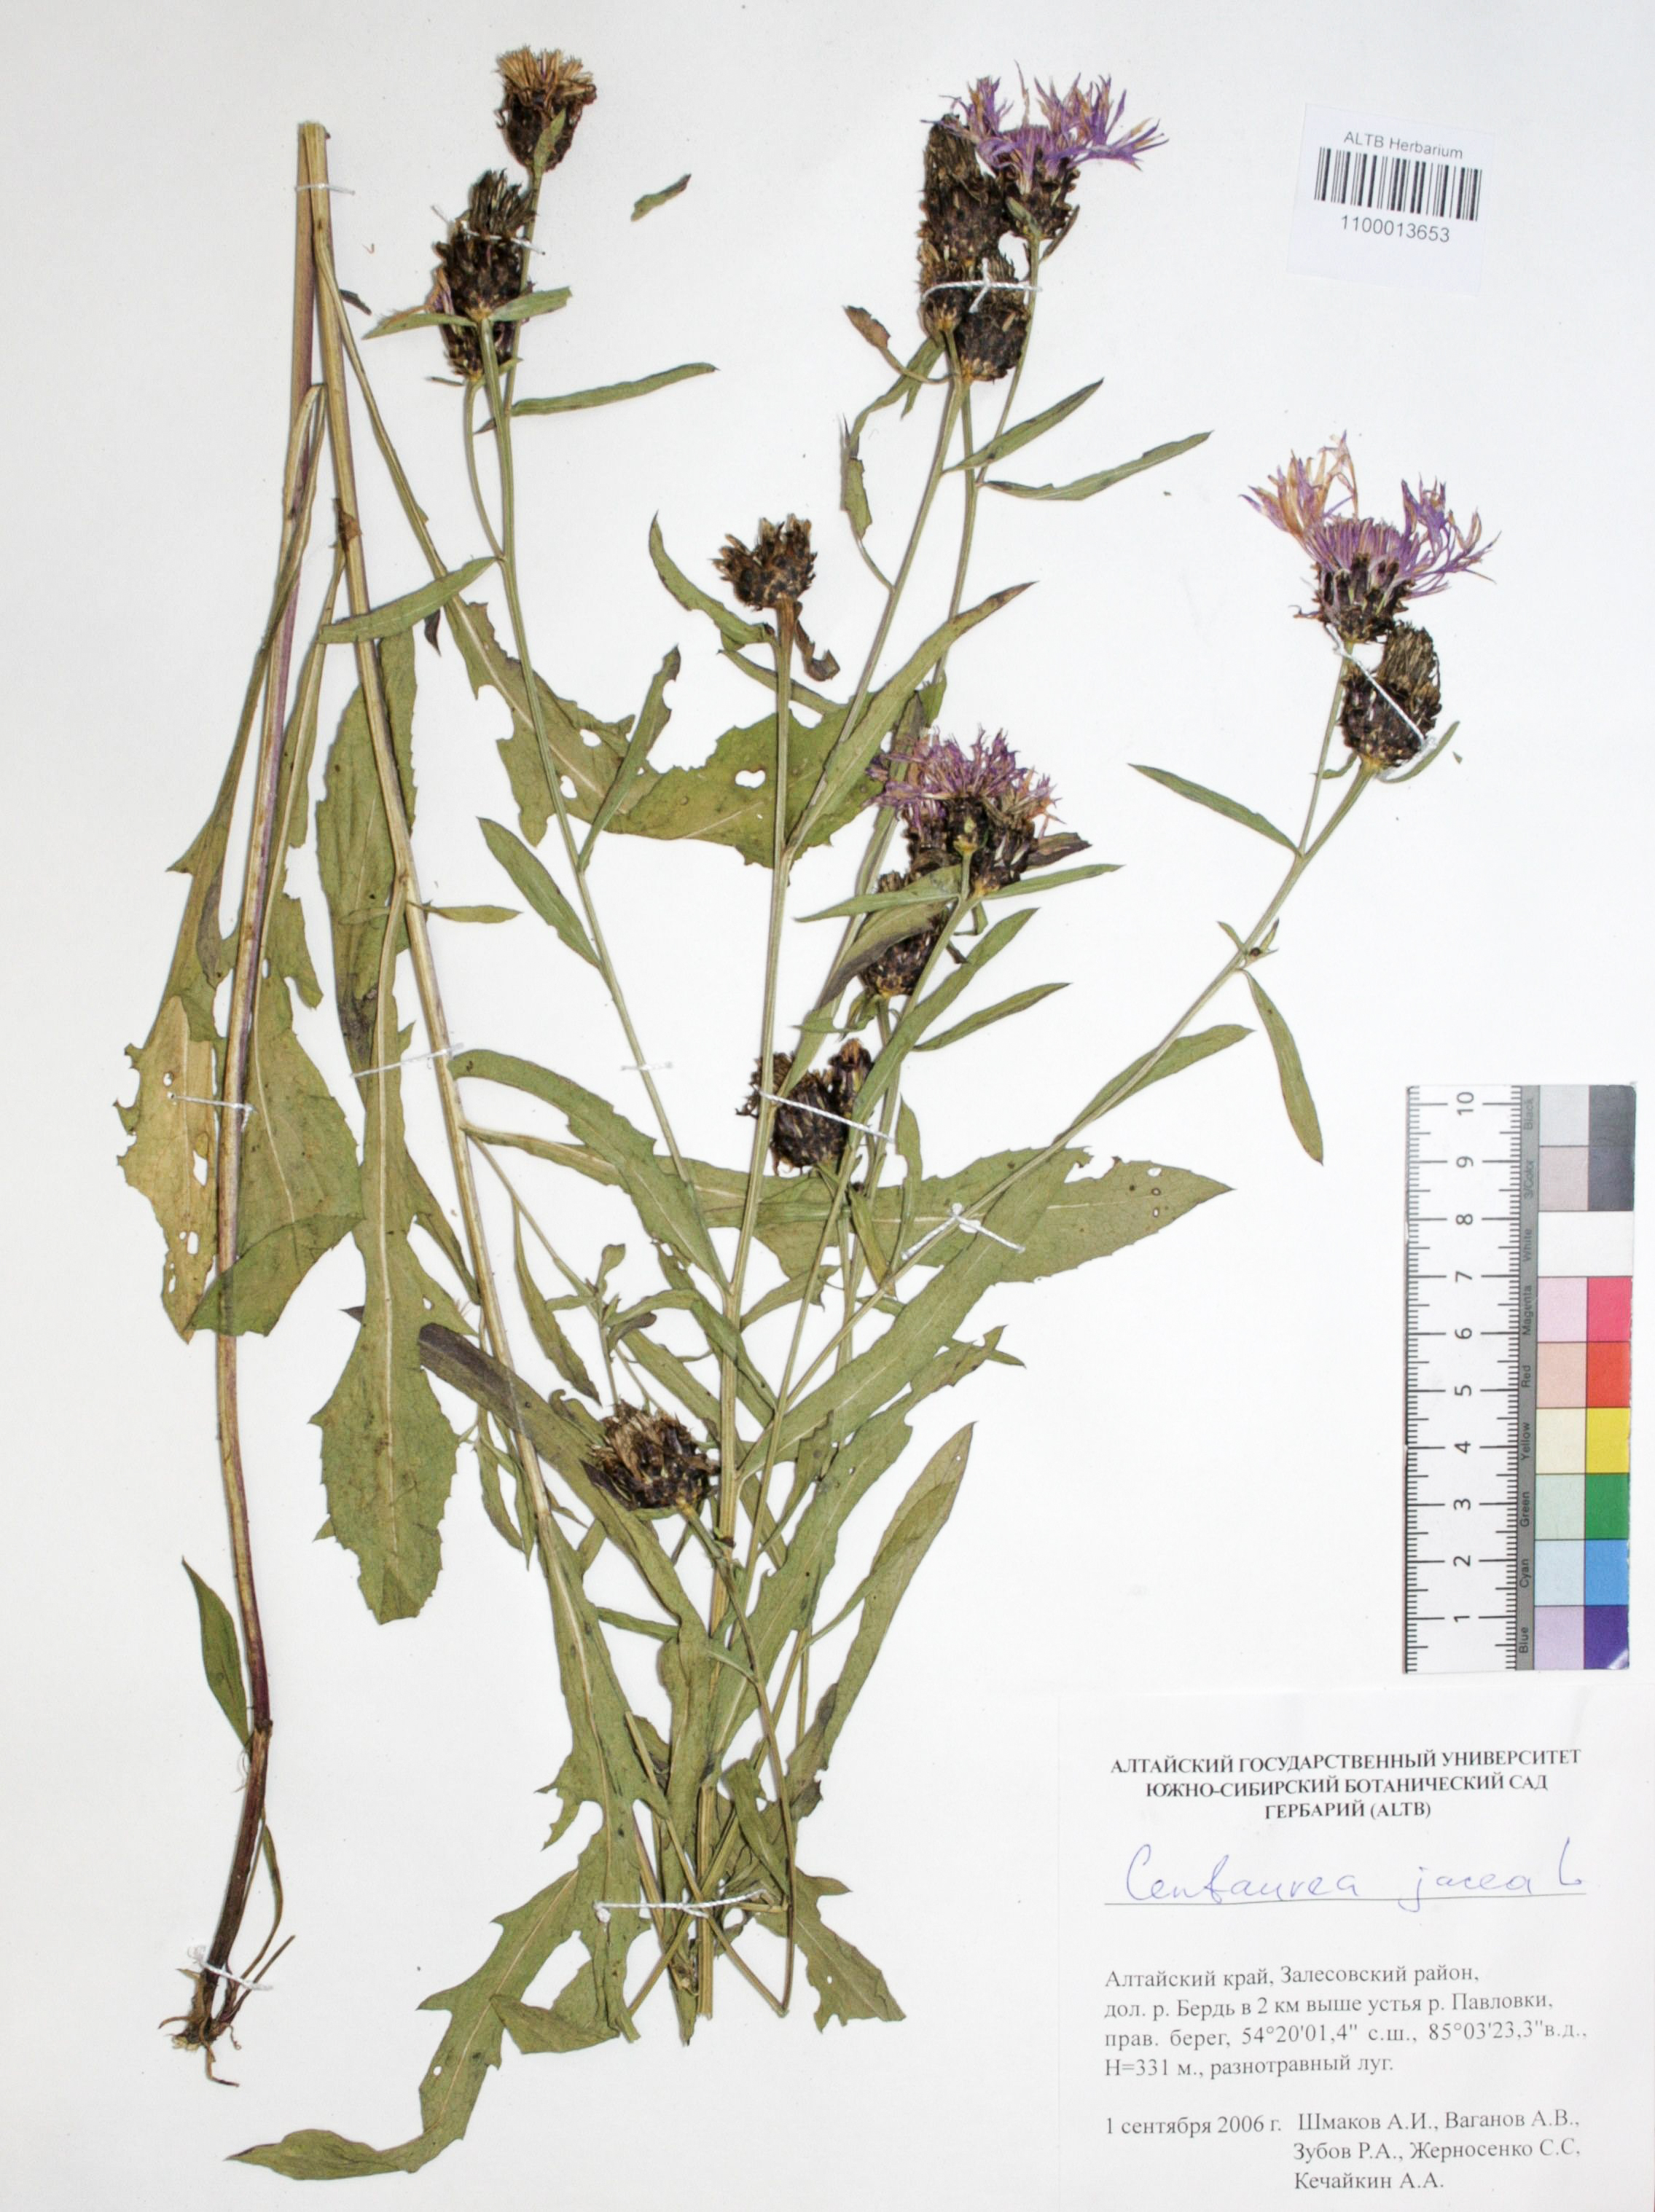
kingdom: Plantae
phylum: Tracheophyta
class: Magnoliopsida
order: Asterales
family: Asteraceae
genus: Centaurea
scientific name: Centaurea jacea
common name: Brown knapweed
